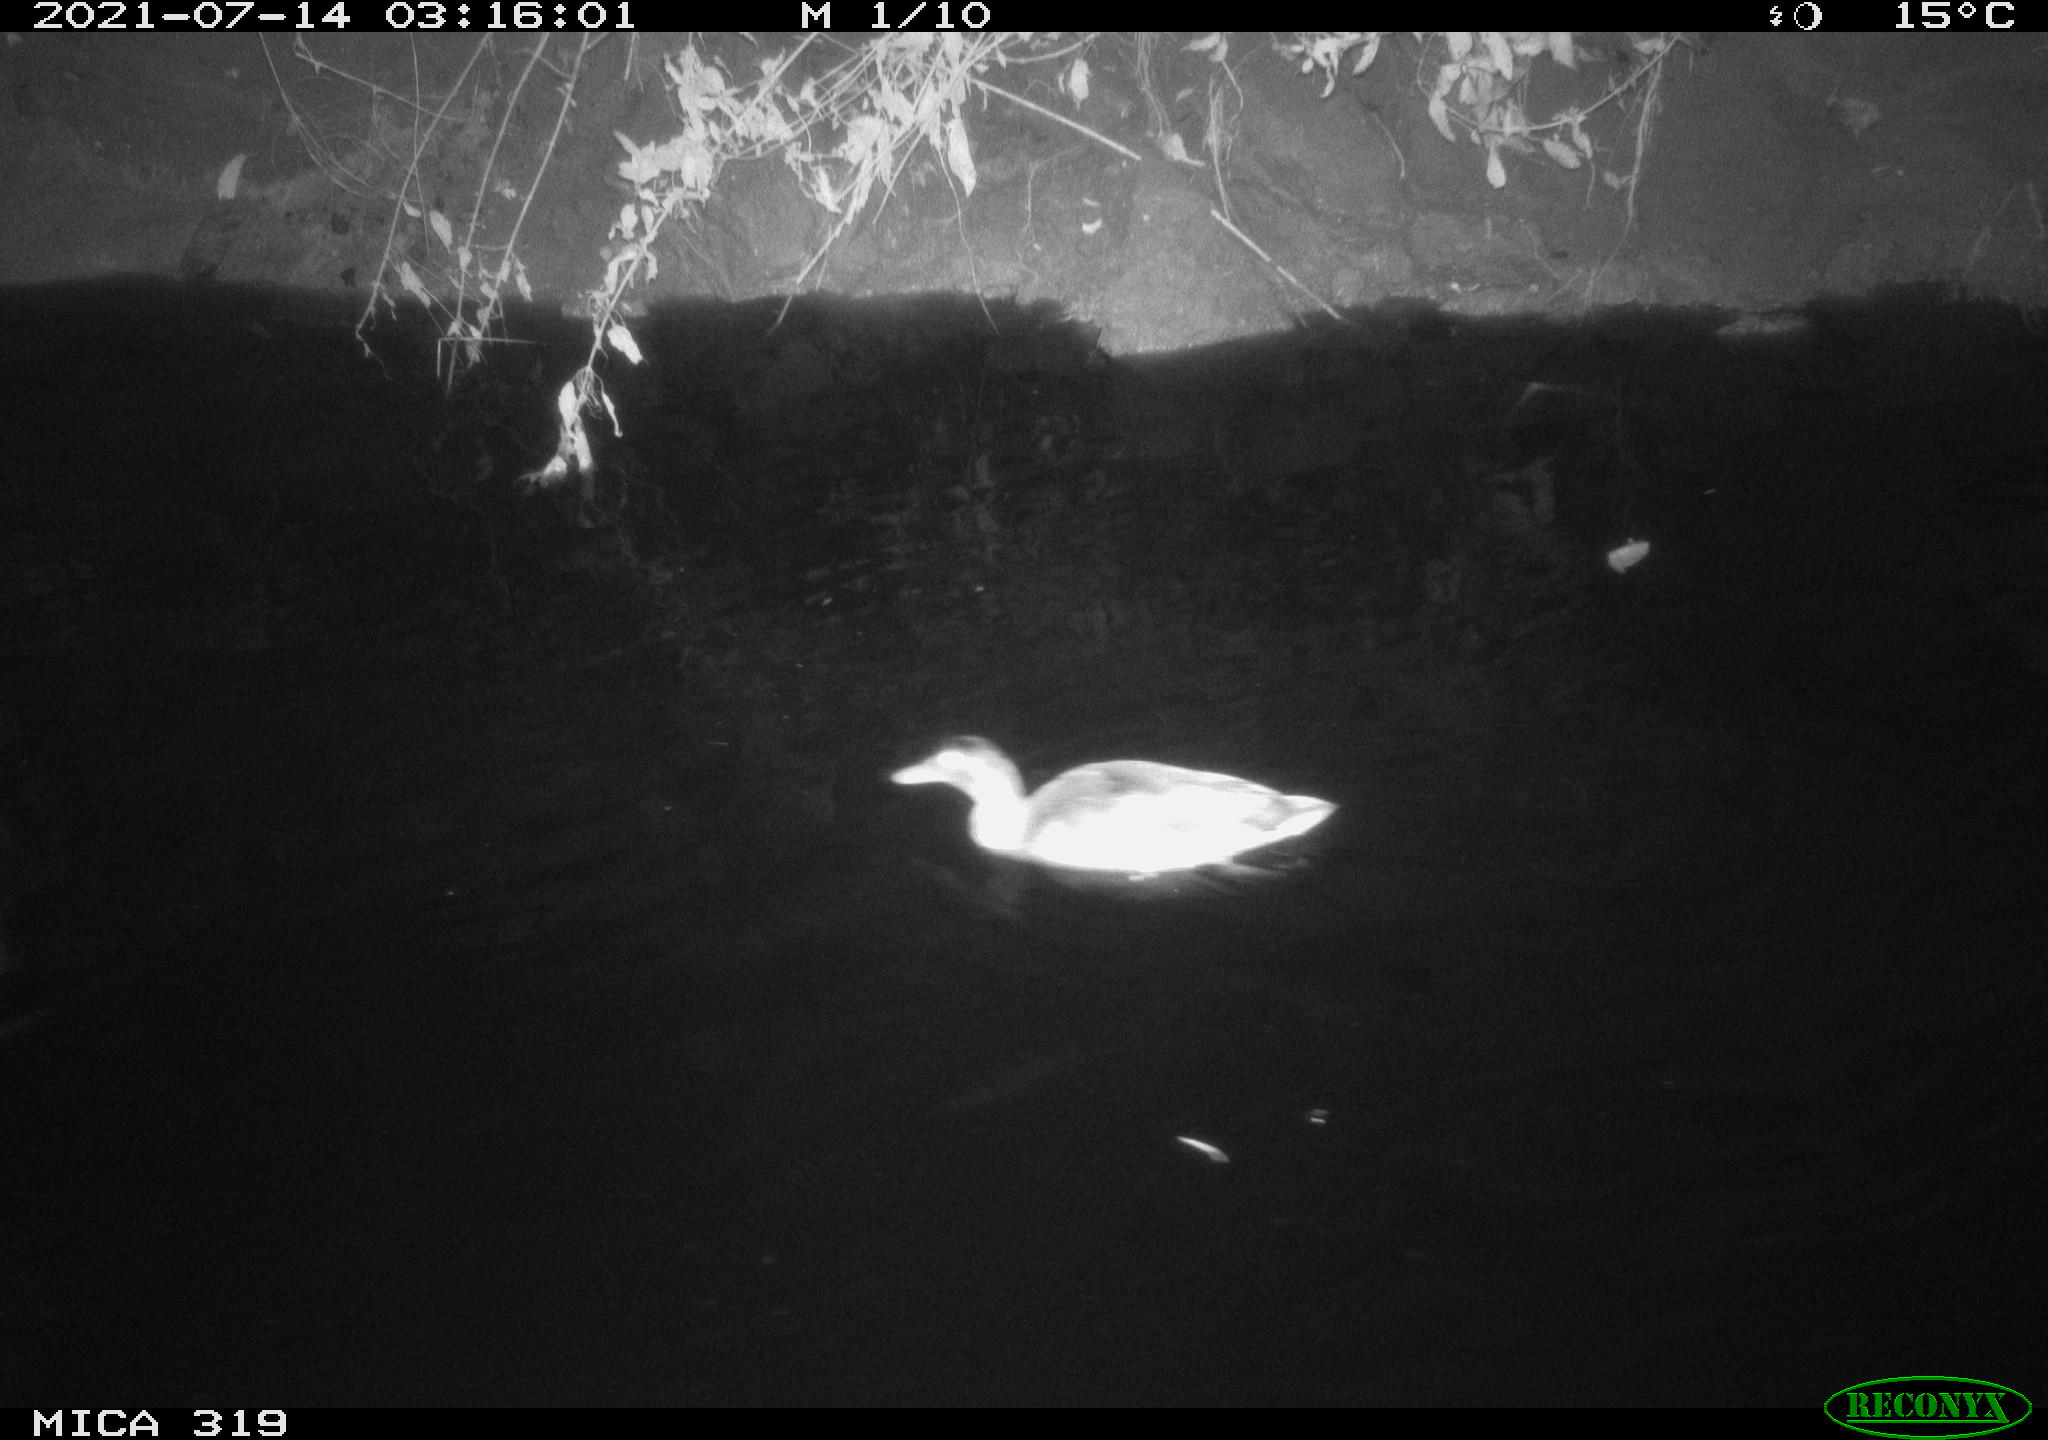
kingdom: Animalia
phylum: Chordata
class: Aves
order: Anseriformes
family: Anatidae
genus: Anas
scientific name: Anas platyrhynchos
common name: Mallard
